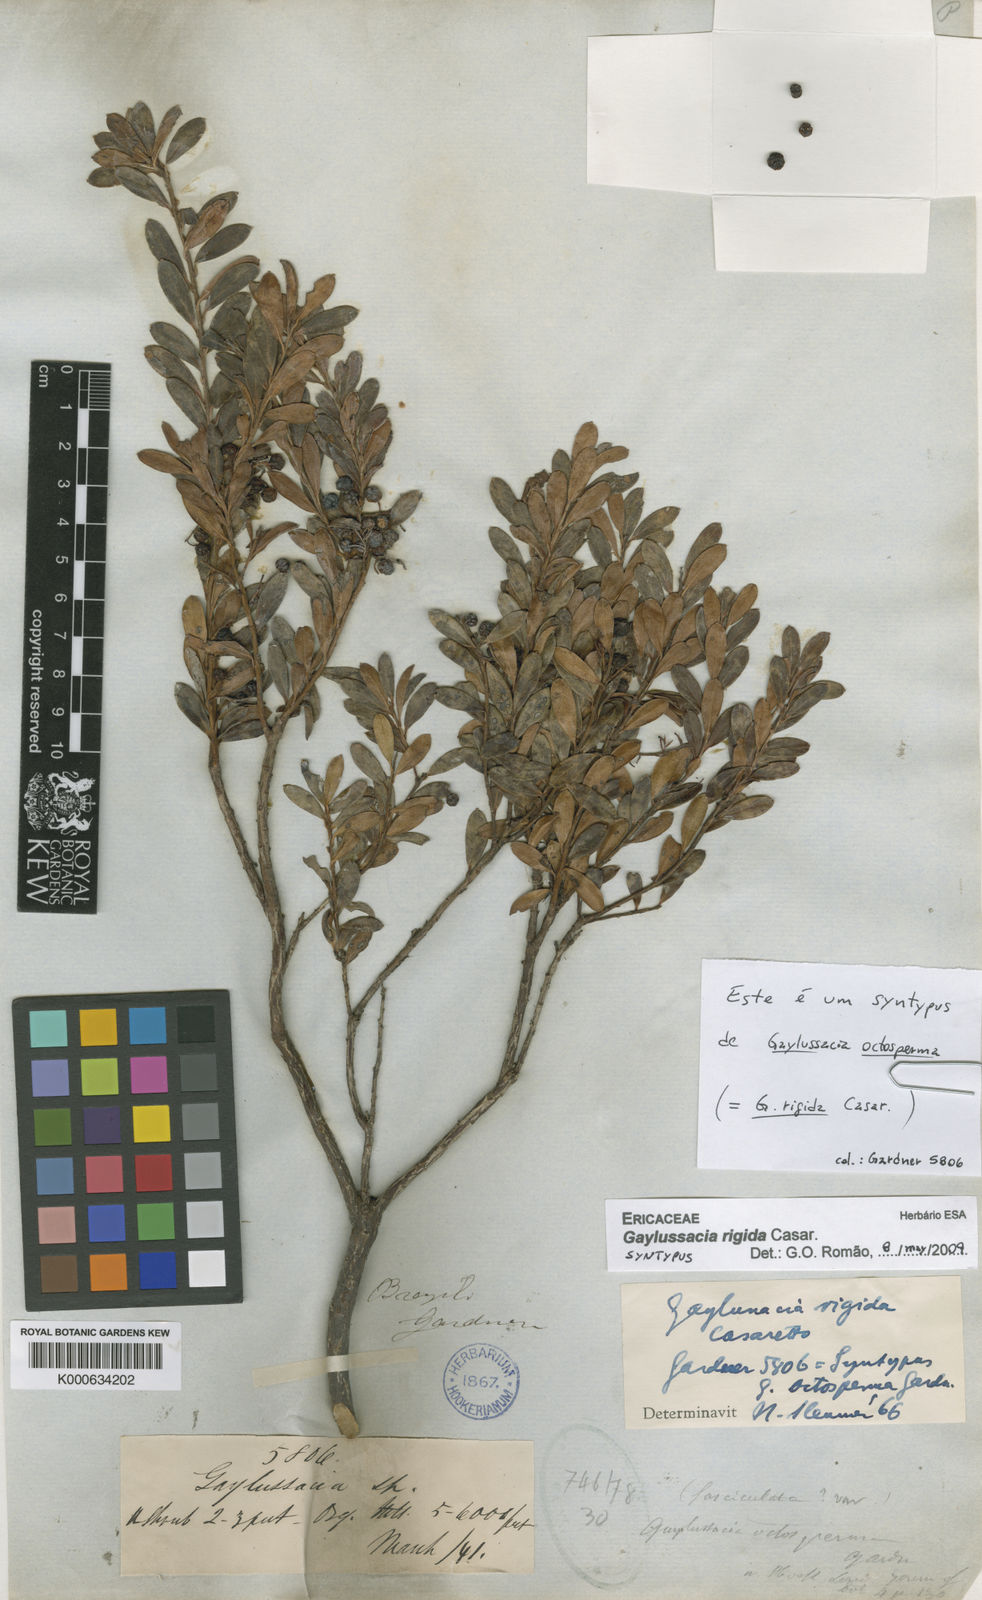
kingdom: Plantae
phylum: Tracheophyta
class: Magnoliopsida
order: Ericales
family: Ericaceae
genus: Gaylussacia
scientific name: Gaylussacia rigida
